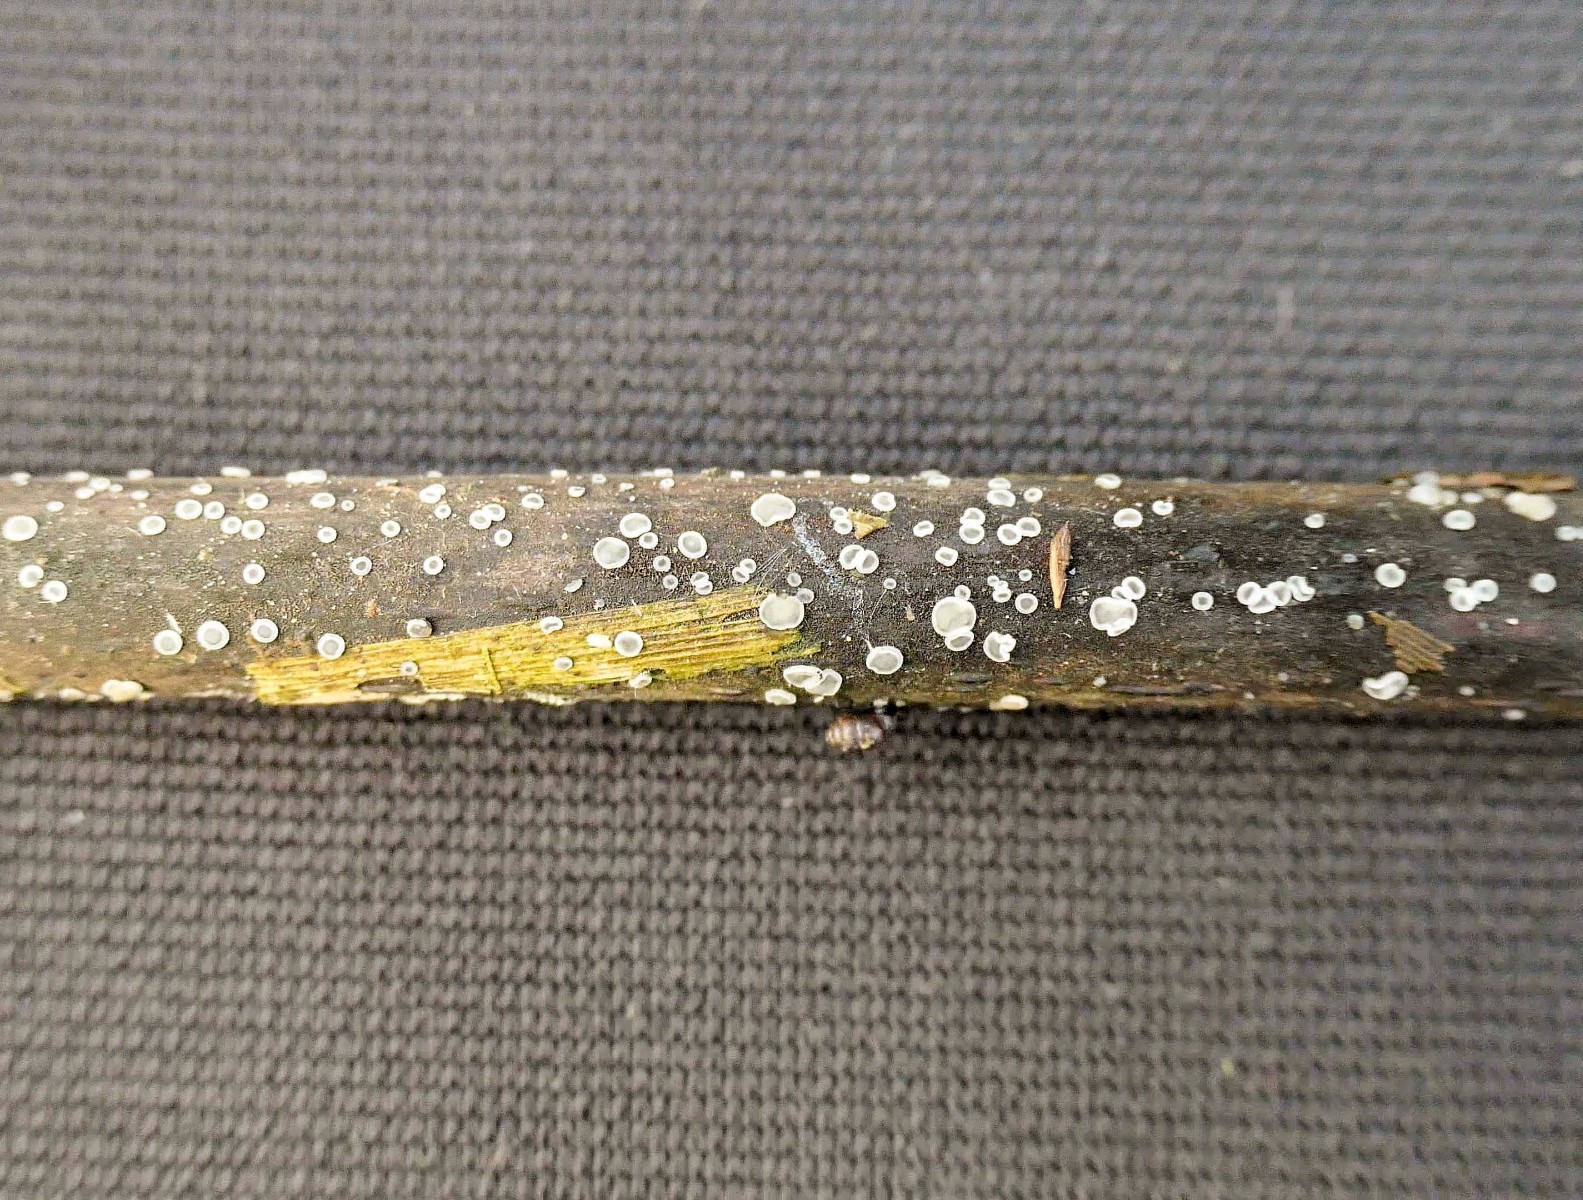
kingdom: Fungi
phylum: Ascomycota
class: Leotiomycetes
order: Helotiales
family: Mollisiaceae
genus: Mollisia
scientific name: Mollisia
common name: gråskive
